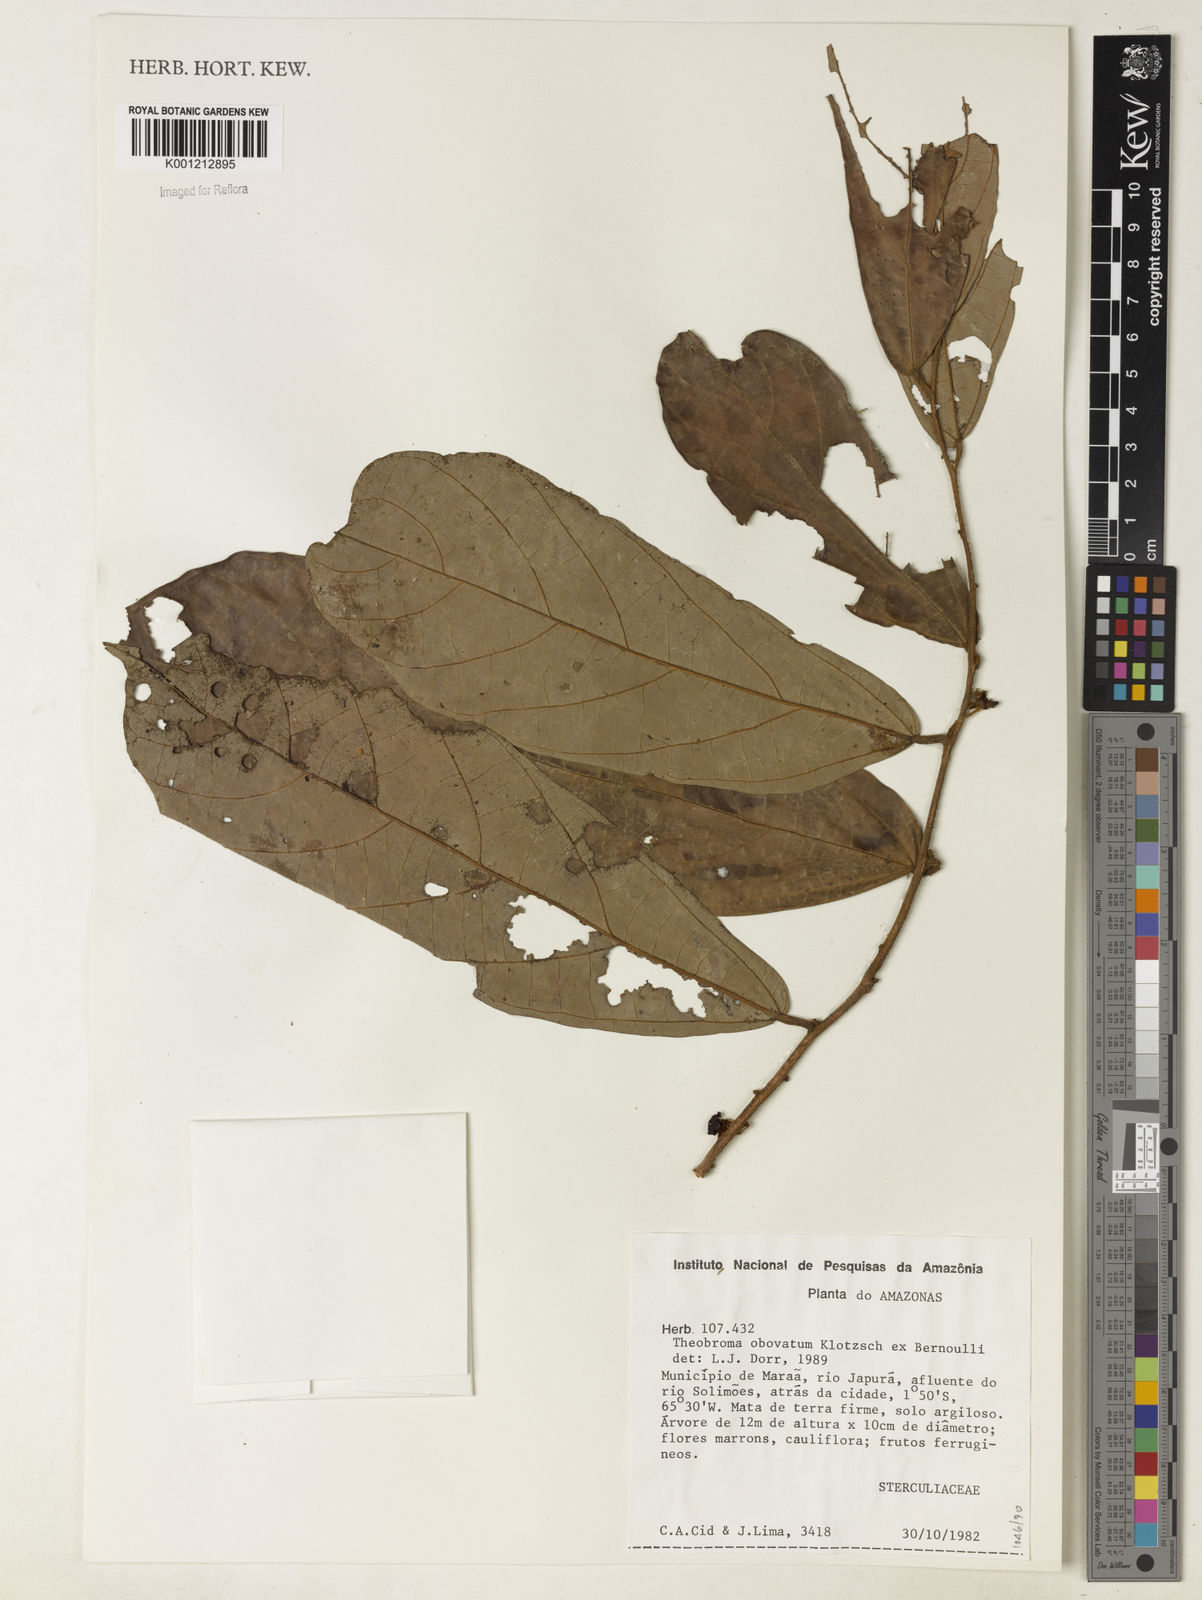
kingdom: Plantae
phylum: Tracheophyta
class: Magnoliopsida
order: Malvales
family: Malvaceae
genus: Theobroma
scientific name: Theobroma obovatum
